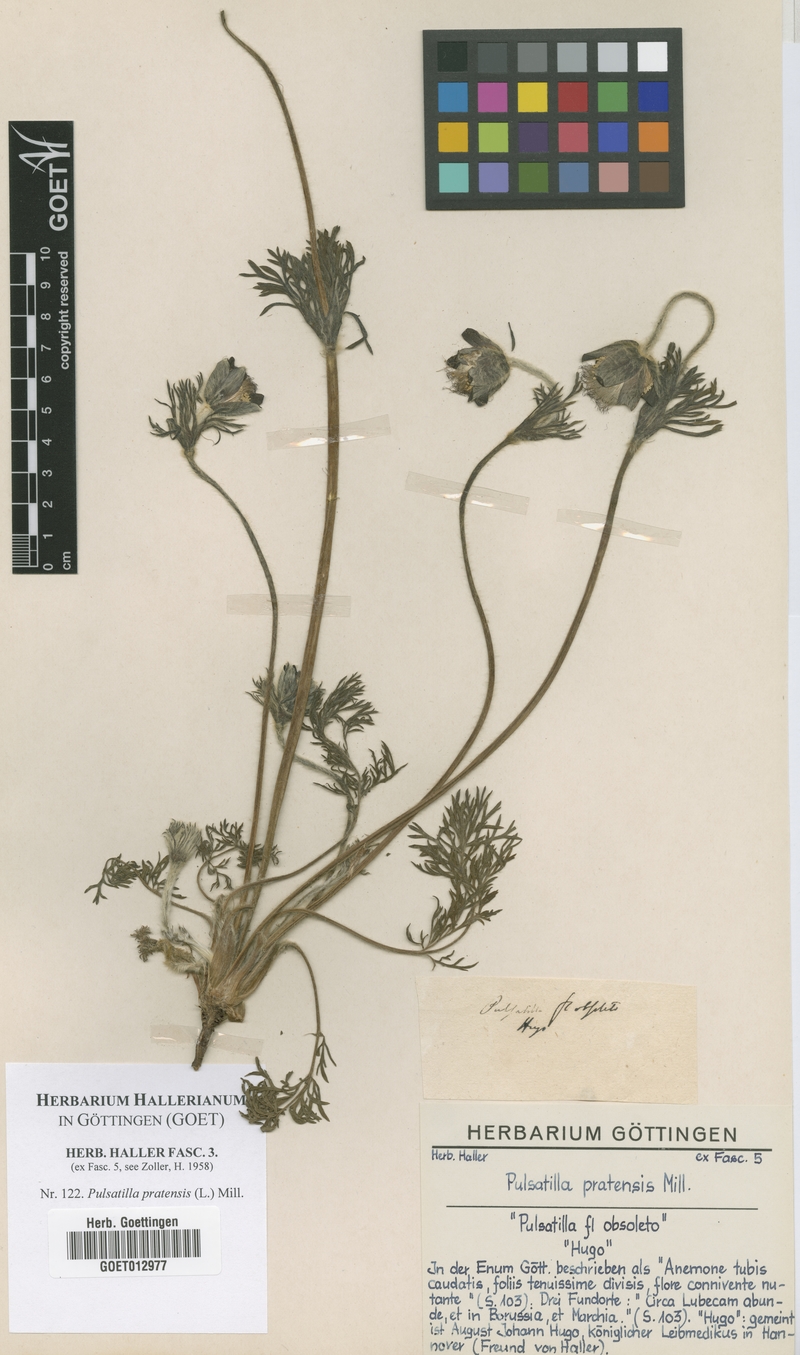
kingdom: Plantae
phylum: Tracheophyta
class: Magnoliopsida
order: Ranunculales
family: Ranunculaceae
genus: Pulsatilla
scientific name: Pulsatilla pratensis
